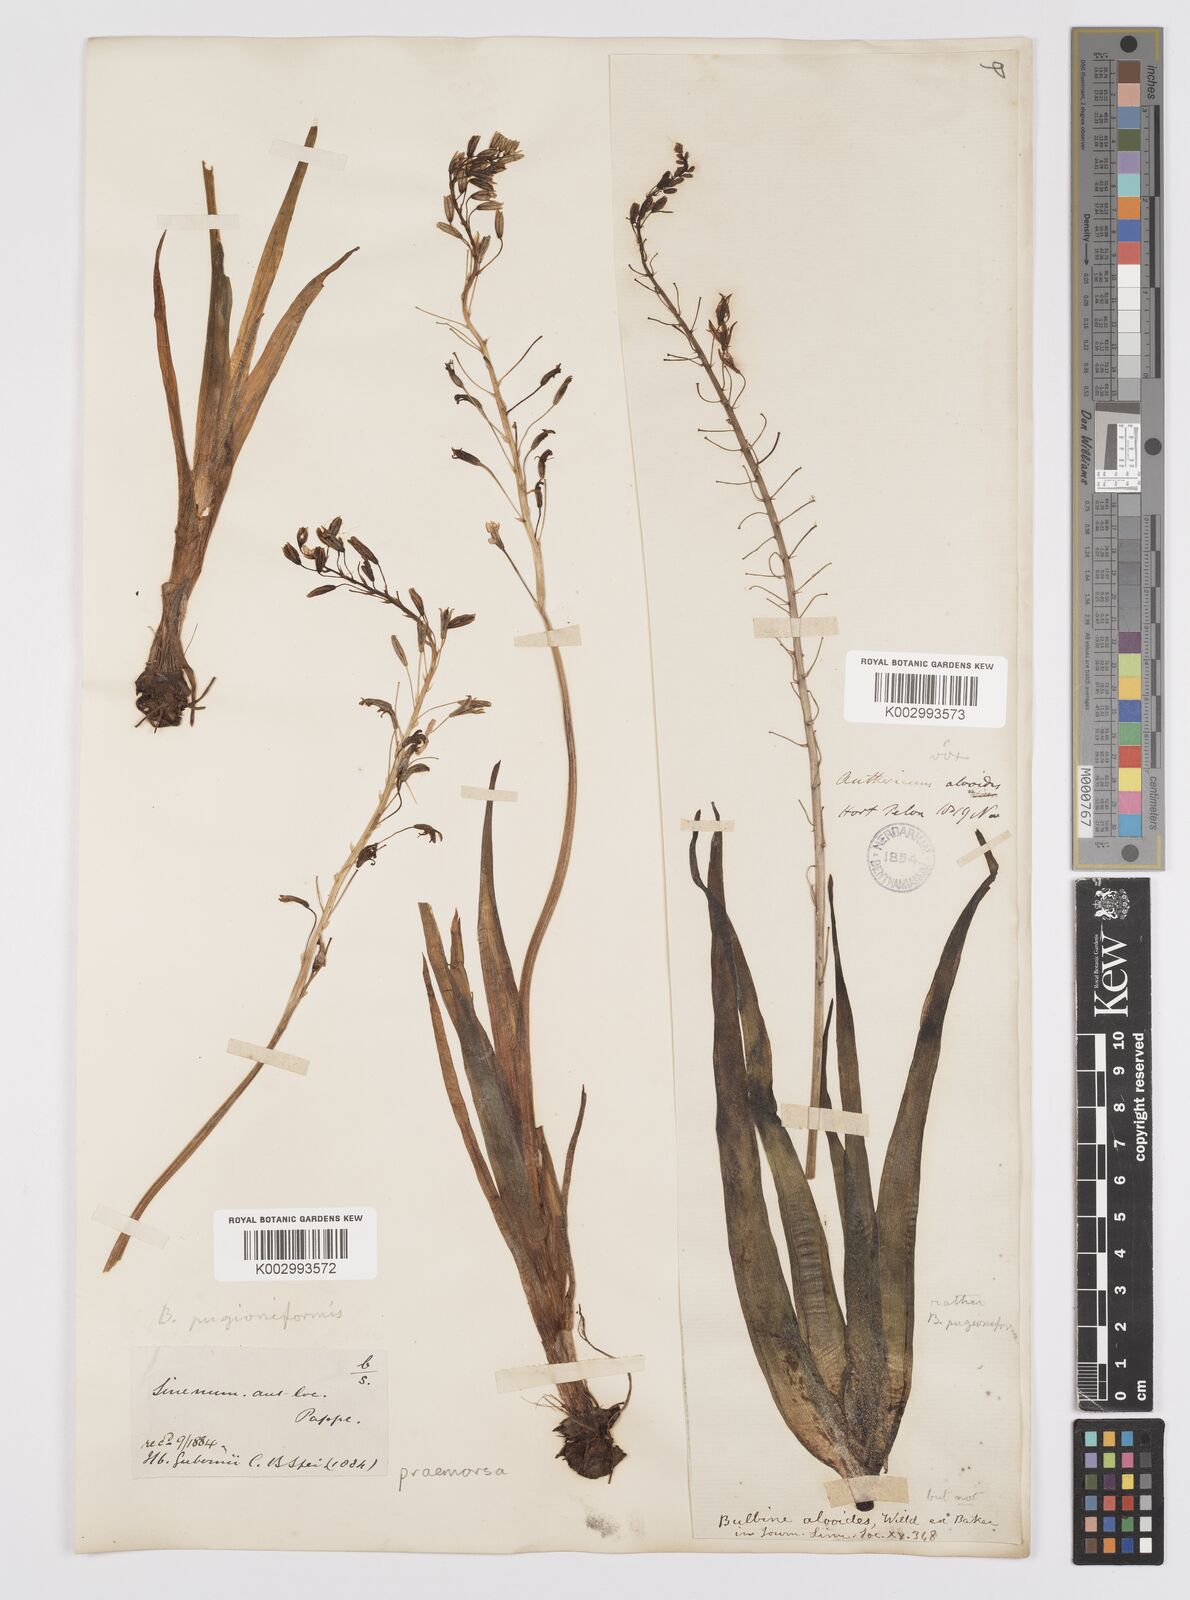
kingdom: Plantae
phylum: Tracheophyta
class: Liliopsida
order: Asparagales
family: Asphodelaceae
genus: Bulbine
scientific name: Bulbine praemorsa
